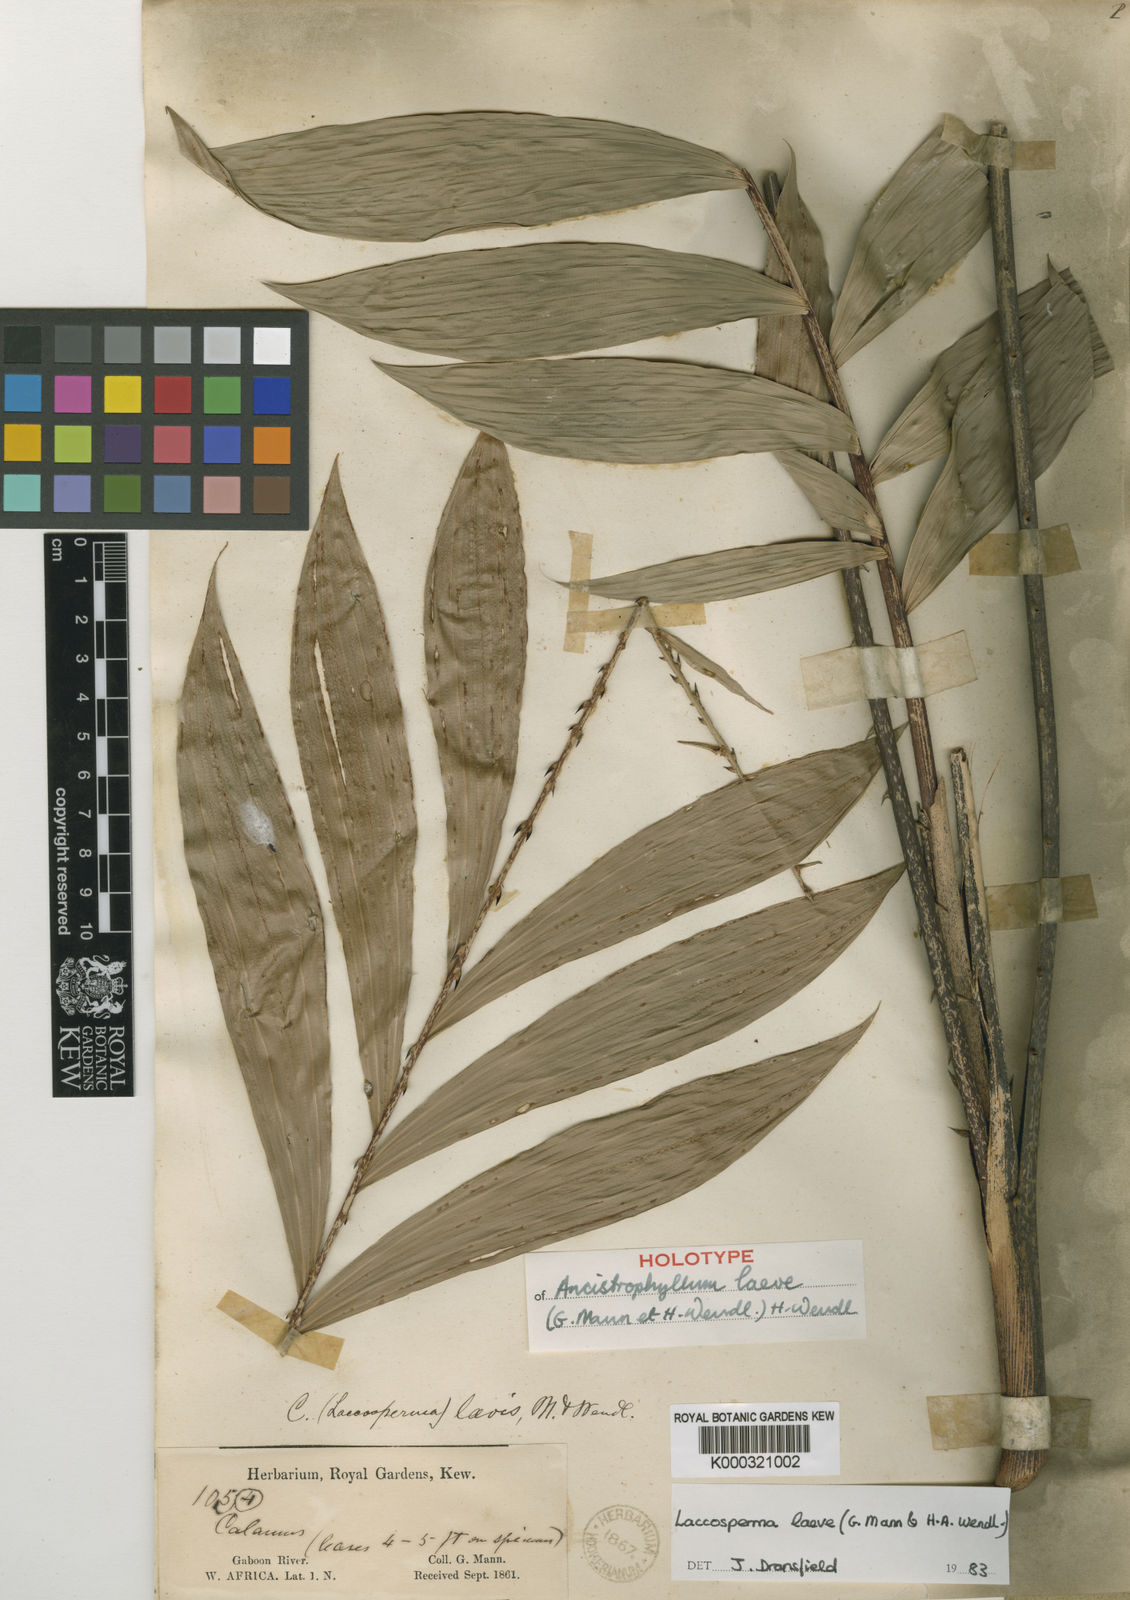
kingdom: Plantae
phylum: Tracheophyta
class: Liliopsida
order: Arecales
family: Arecaceae
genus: Laccosperma
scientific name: Laccosperma laeve
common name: Rattan
